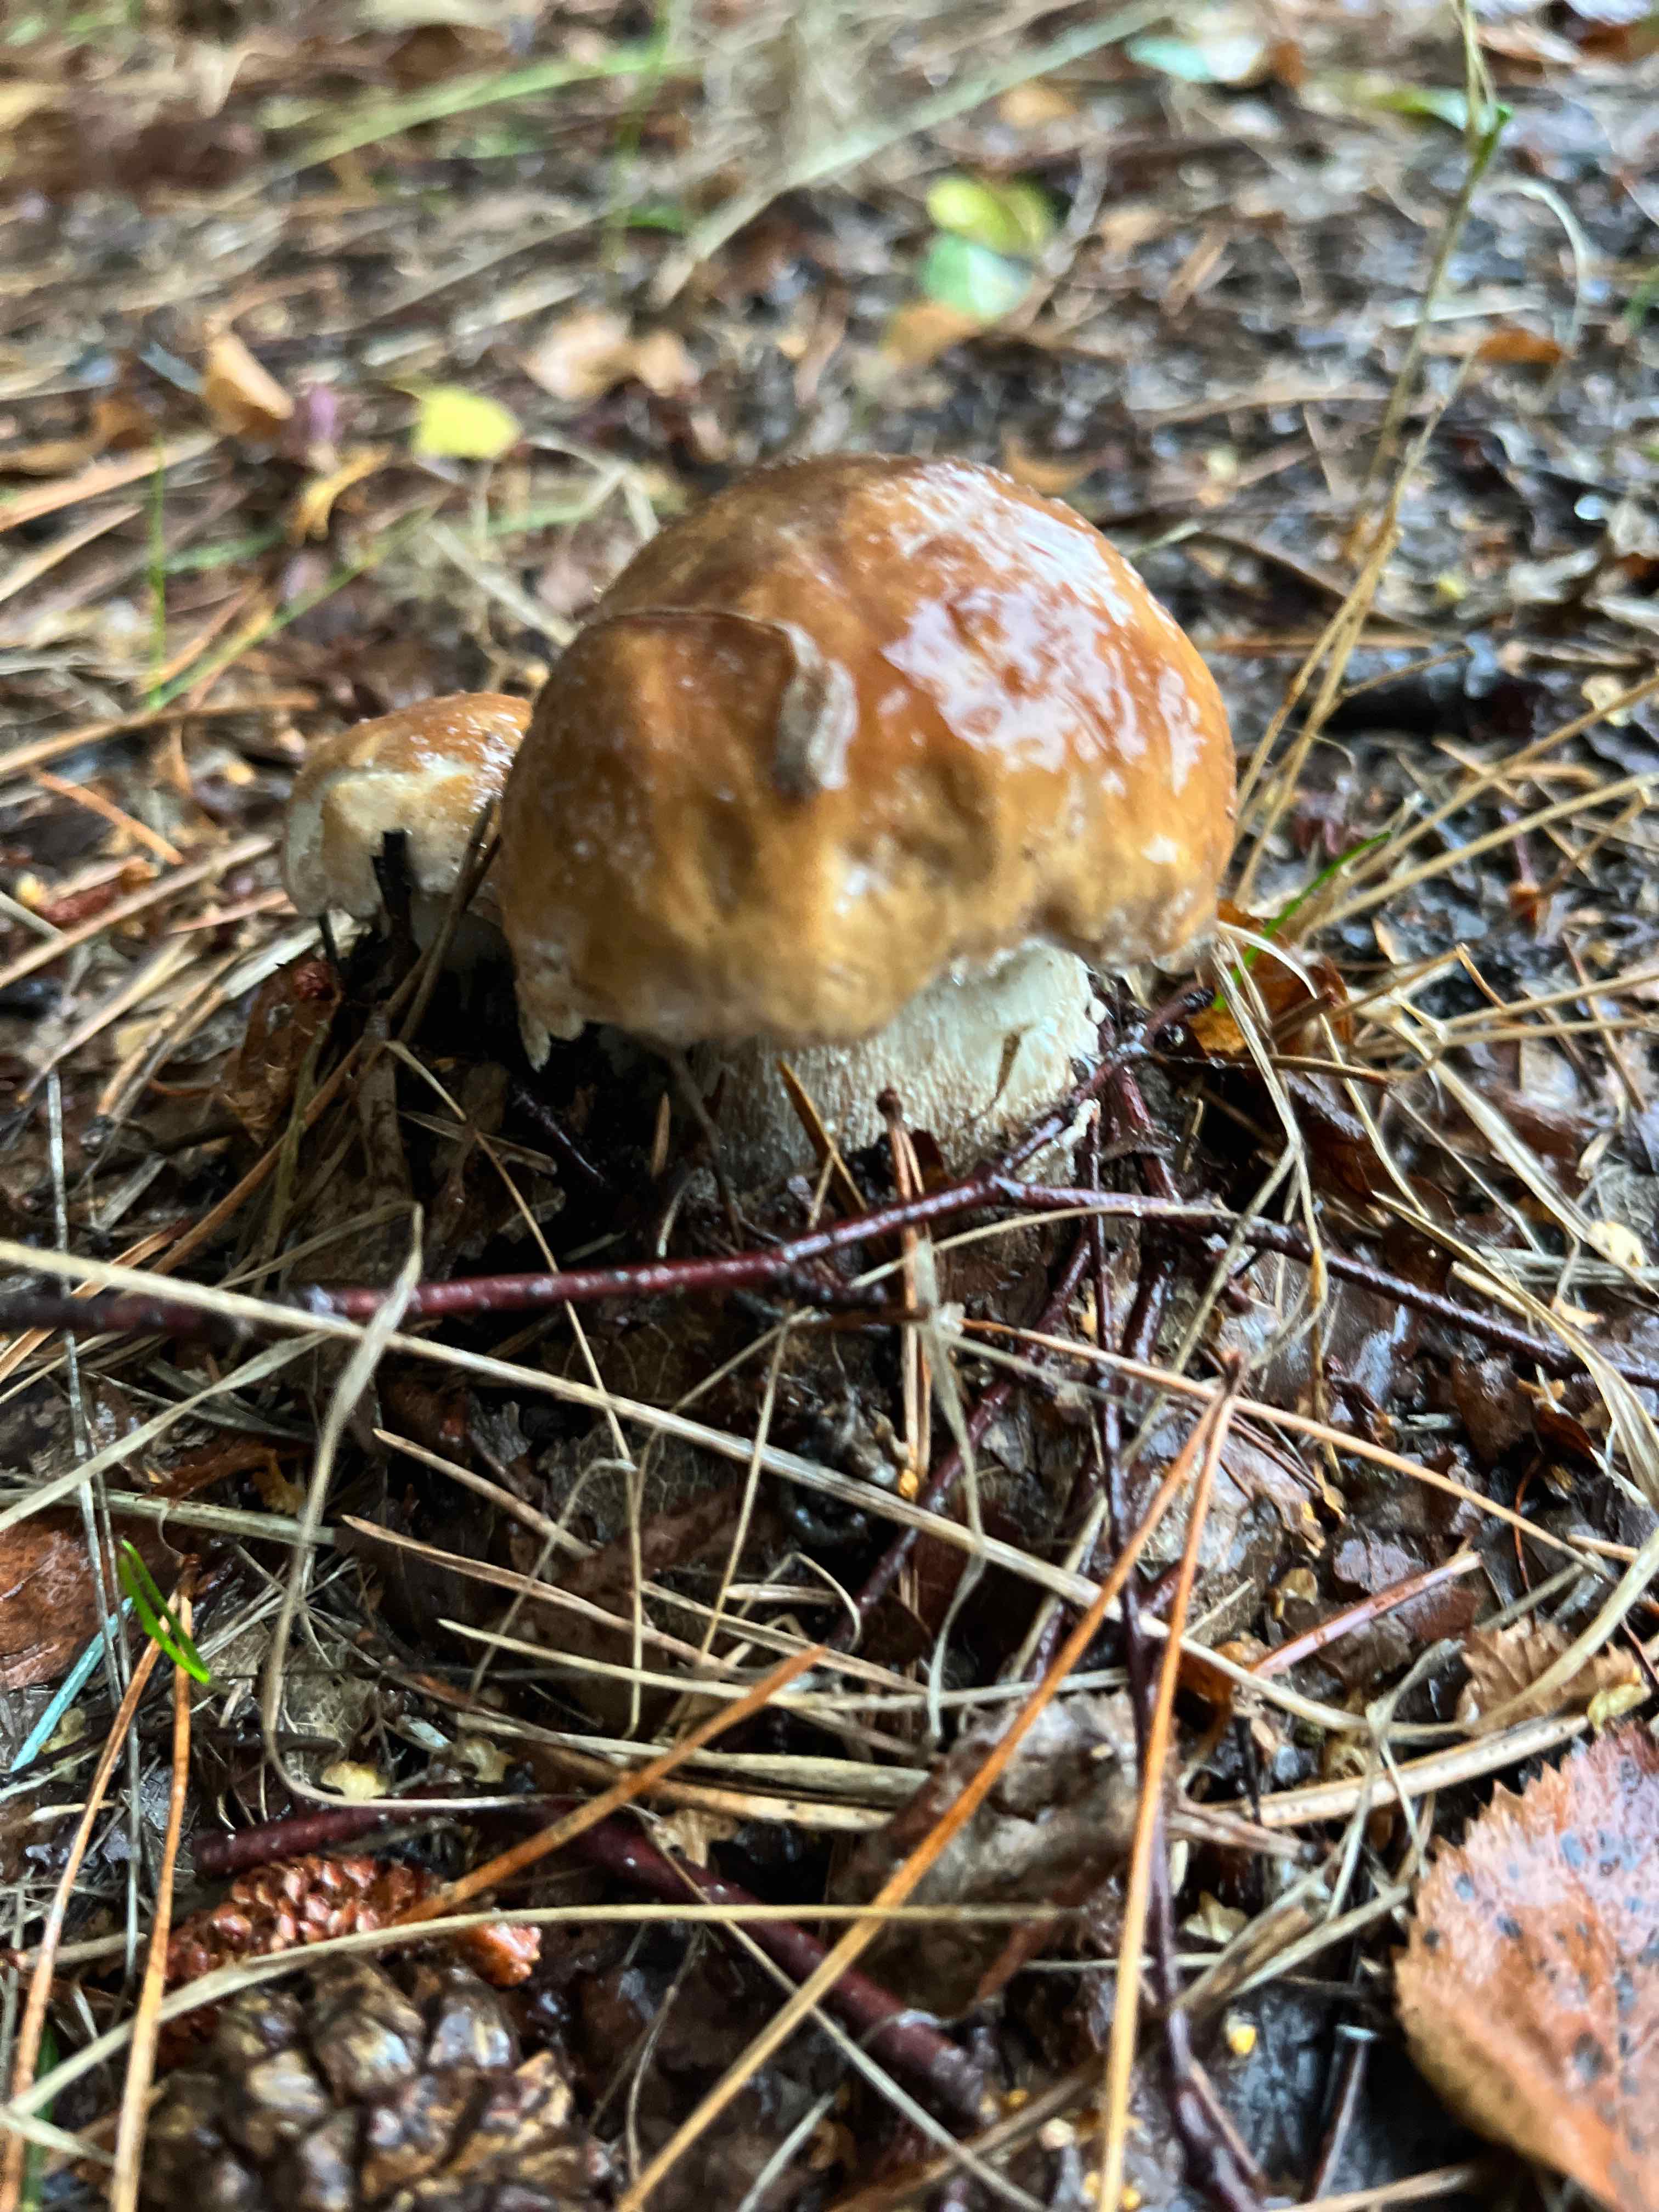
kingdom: Fungi
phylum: Basidiomycota
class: Agaricomycetes
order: Boletales
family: Boletaceae
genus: Boletus
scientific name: Boletus edulis
